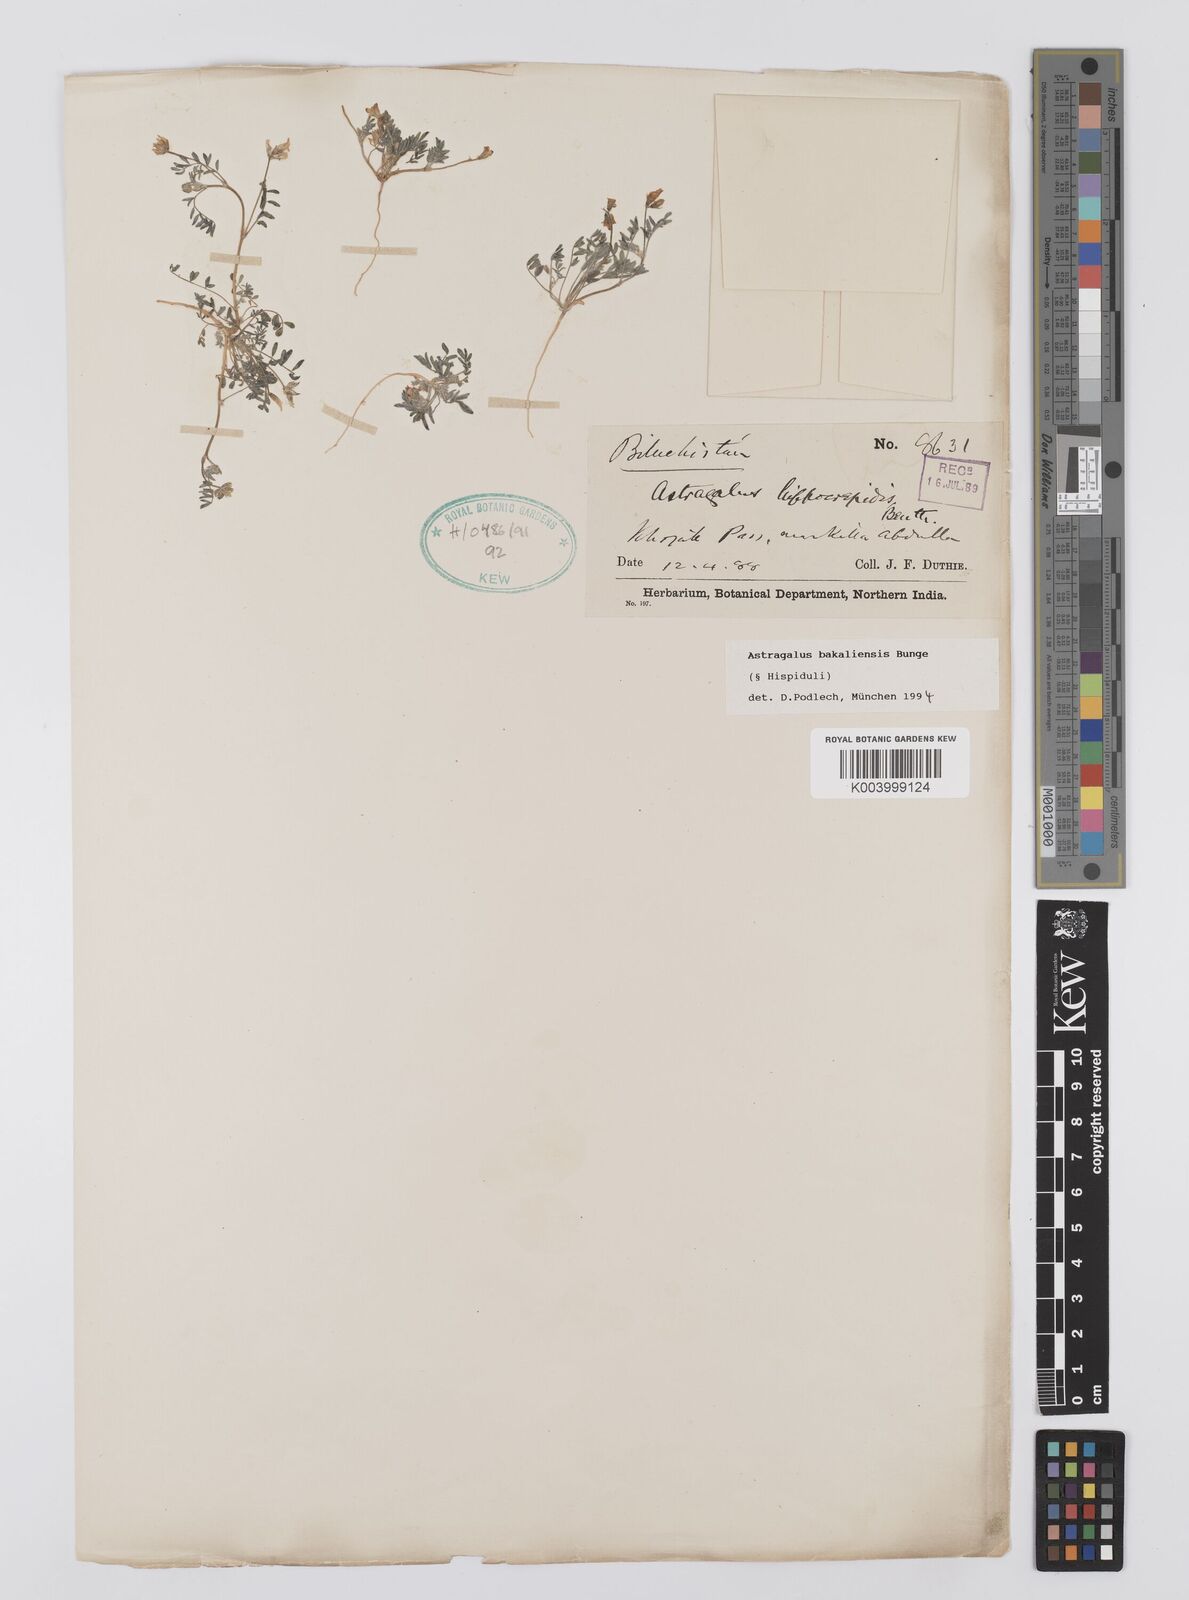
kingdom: Plantae
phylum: Tracheophyta
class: Magnoliopsida
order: Fabales
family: Fabaceae
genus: Astragalus
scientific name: Astragalus bakaliensis
